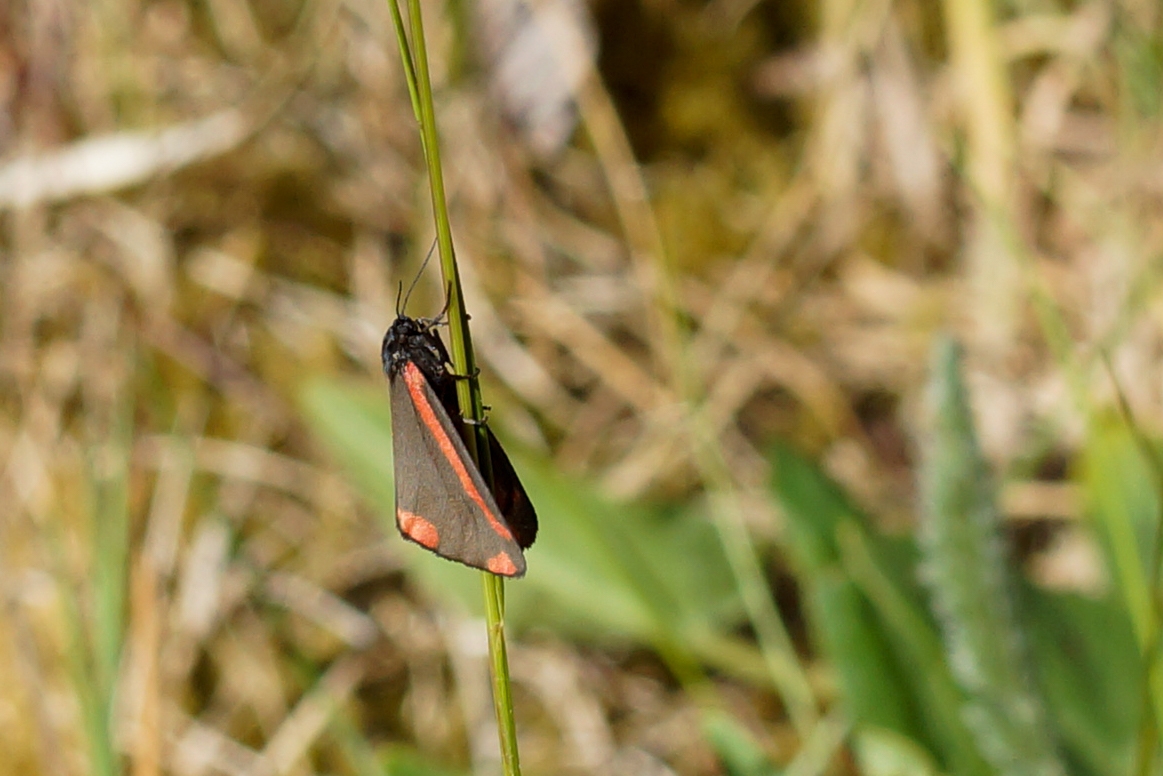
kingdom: Animalia
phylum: Arthropoda
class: Insecta
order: Lepidoptera
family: Erebidae
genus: Tyria
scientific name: Tyria jacobaeae
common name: Blodplet
